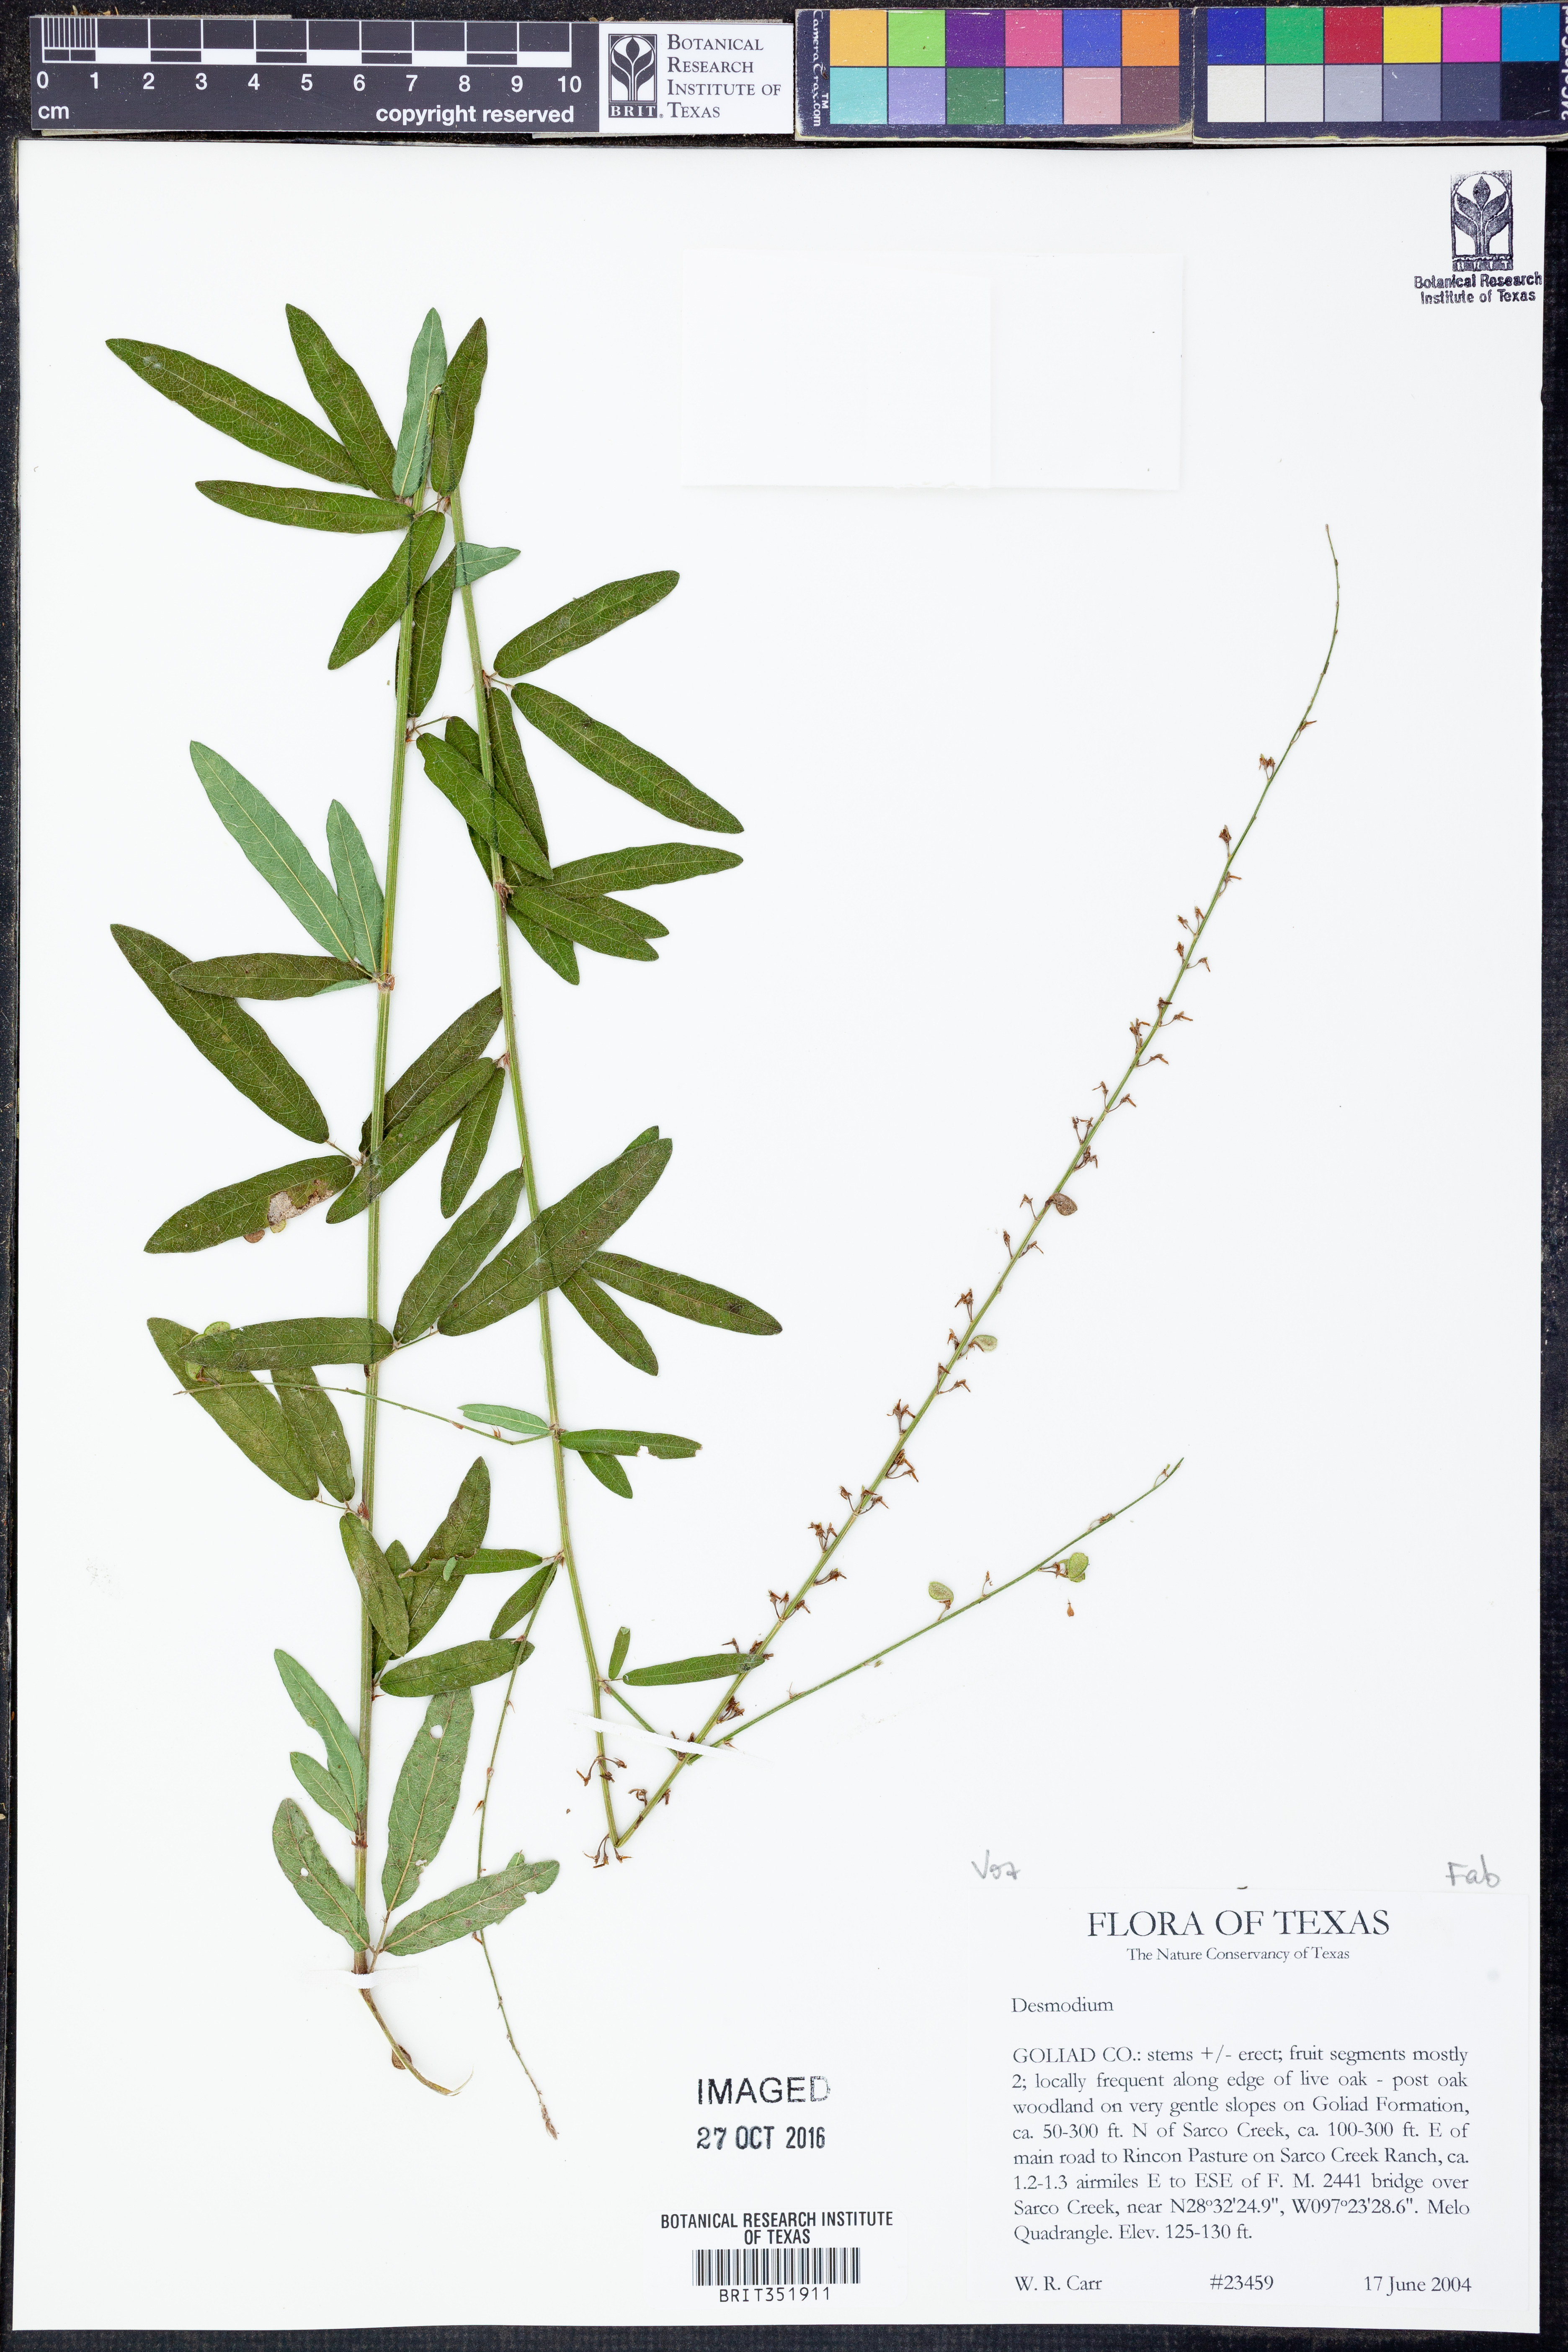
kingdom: Plantae
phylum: Tracheophyta
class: Magnoliopsida
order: Fabales
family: Fabaceae
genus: Desmodium
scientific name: Desmodium
